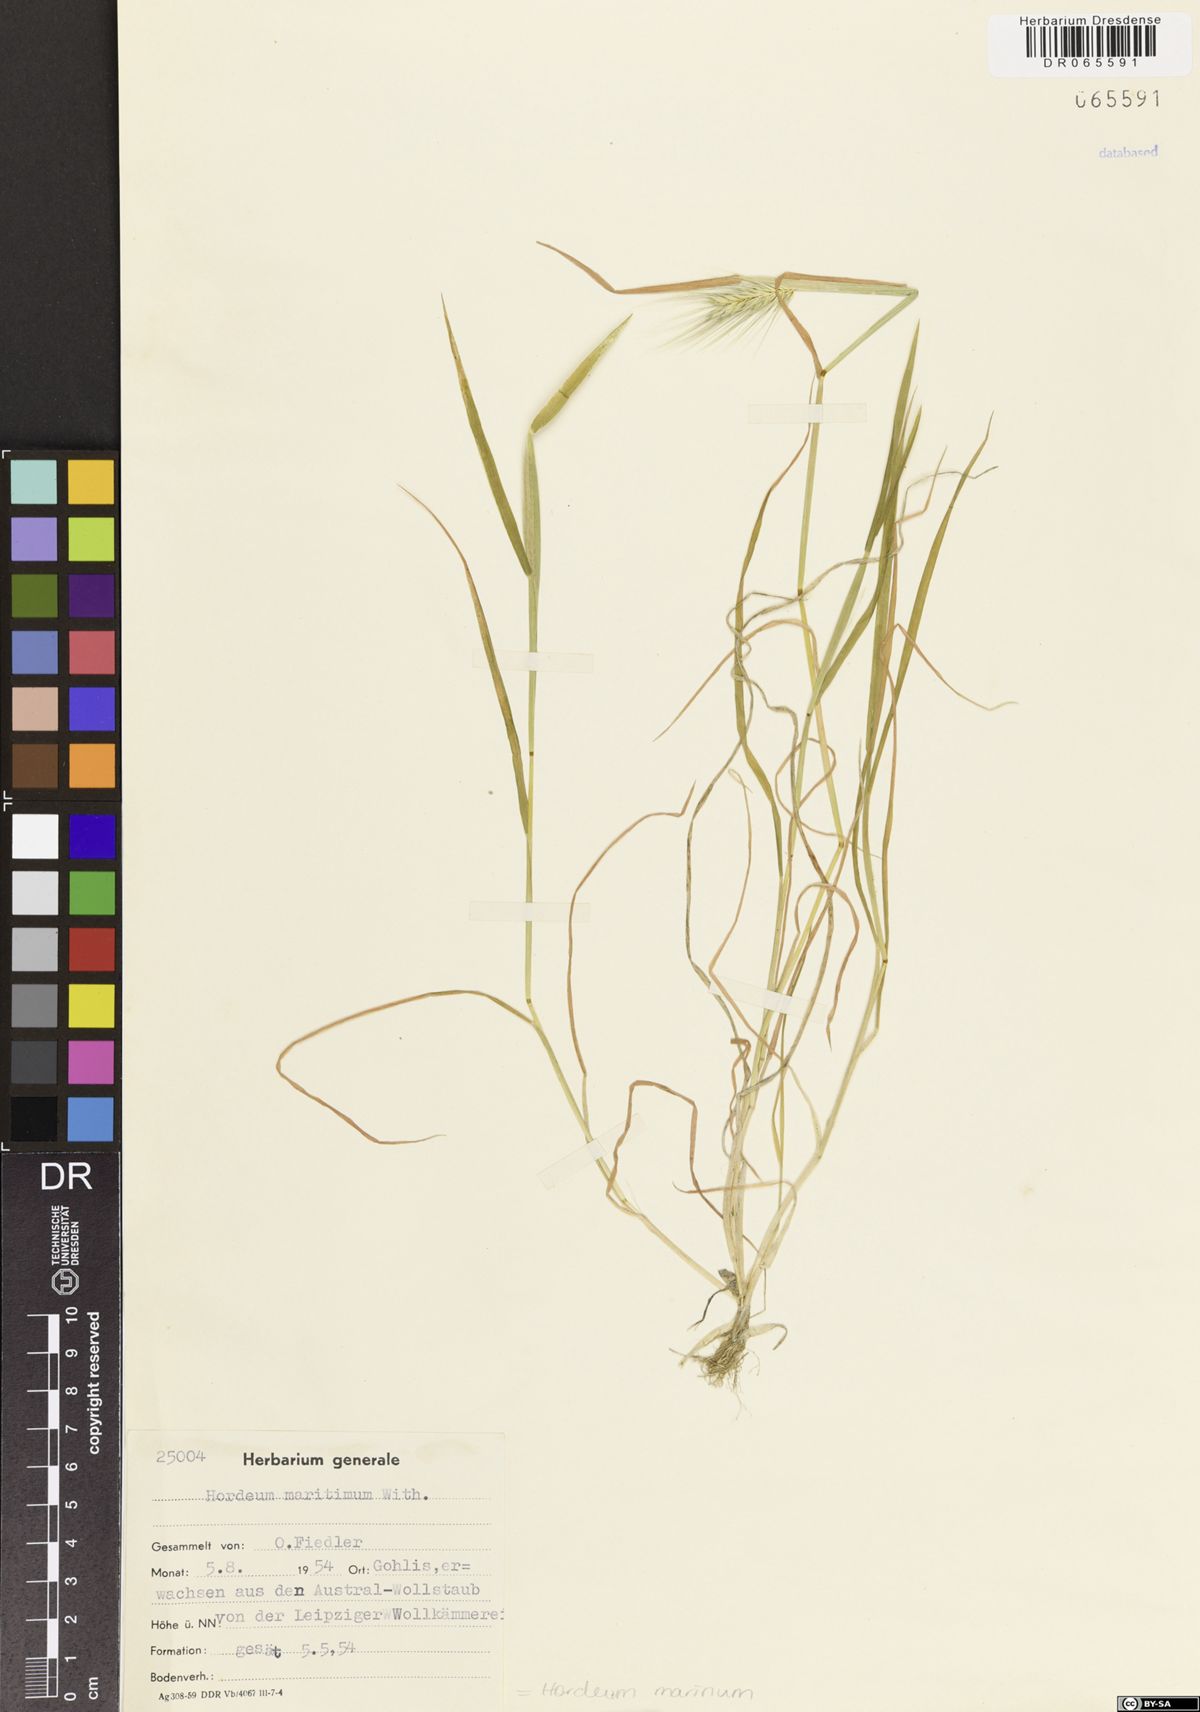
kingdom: Plantae
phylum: Tracheophyta
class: Liliopsida
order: Poales
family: Poaceae
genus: Hordeum
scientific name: Hordeum marinum
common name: Sea barley
